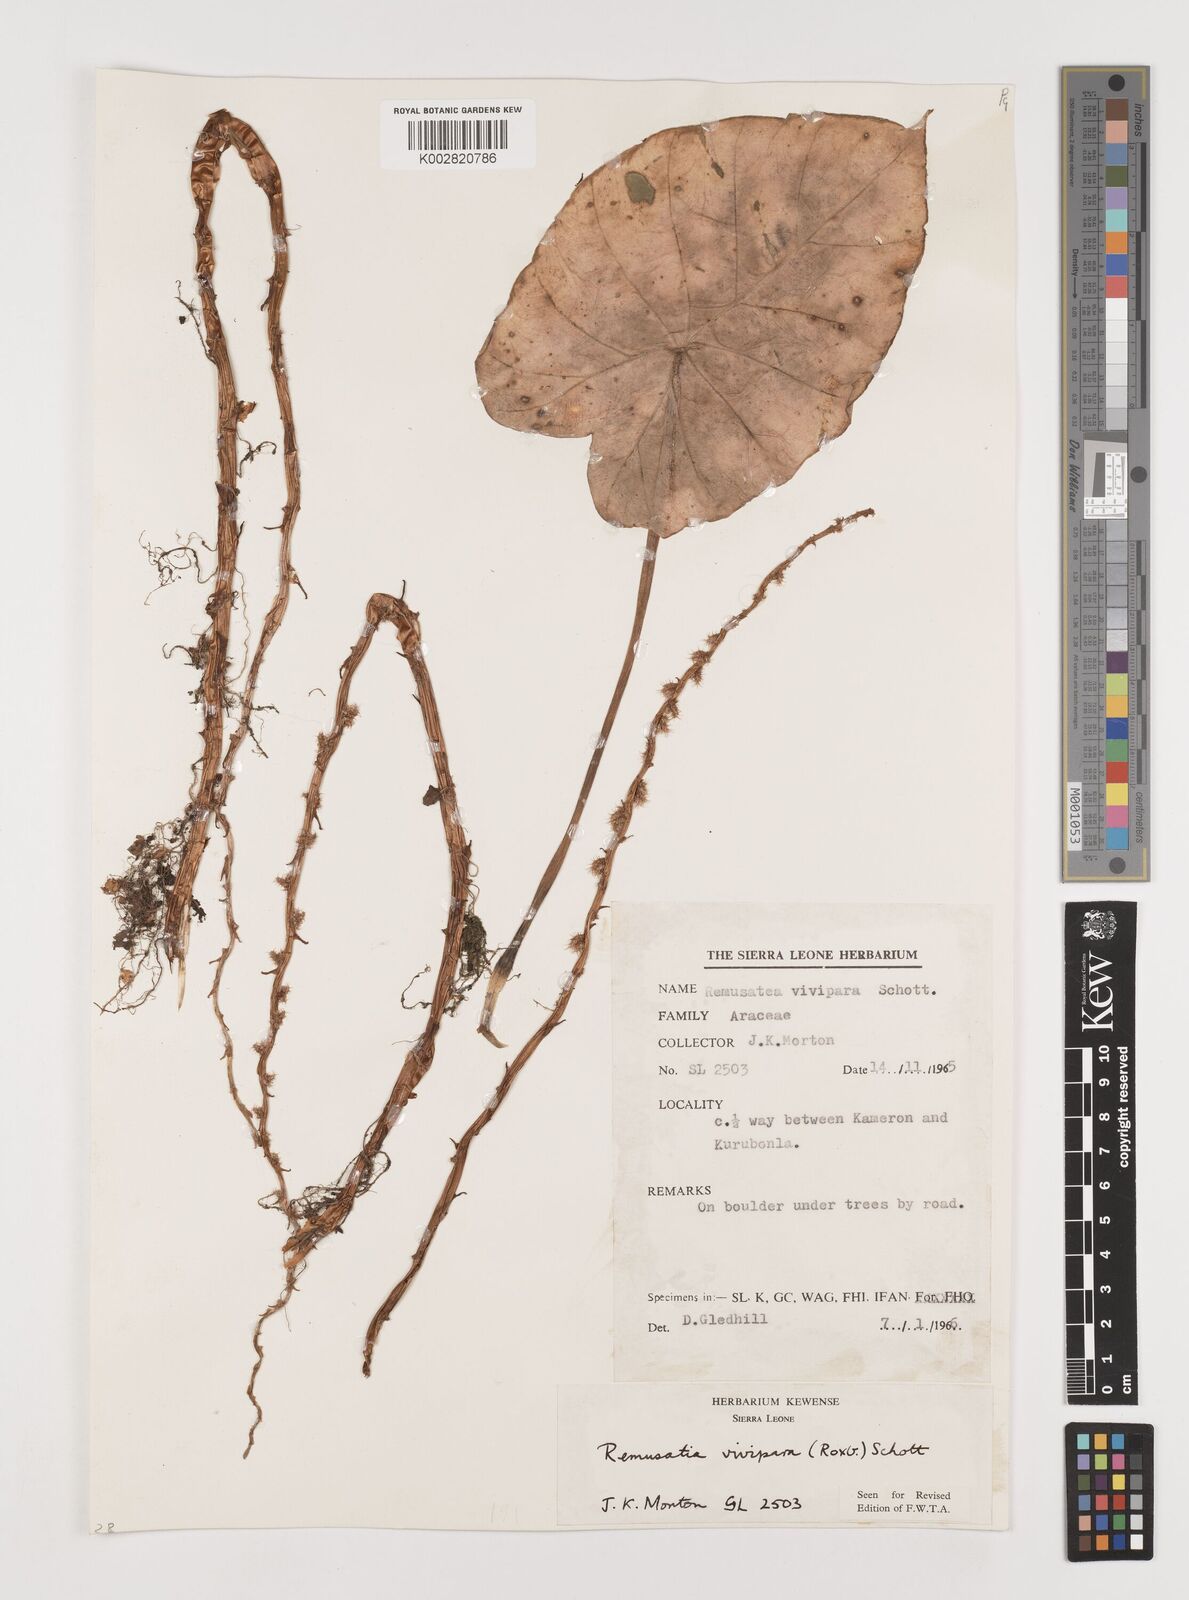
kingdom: Plantae
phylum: Tracheophyta
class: Liliopsida
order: Alismatales
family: Araceae
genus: Remusatia
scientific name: Remusatia vivipara
